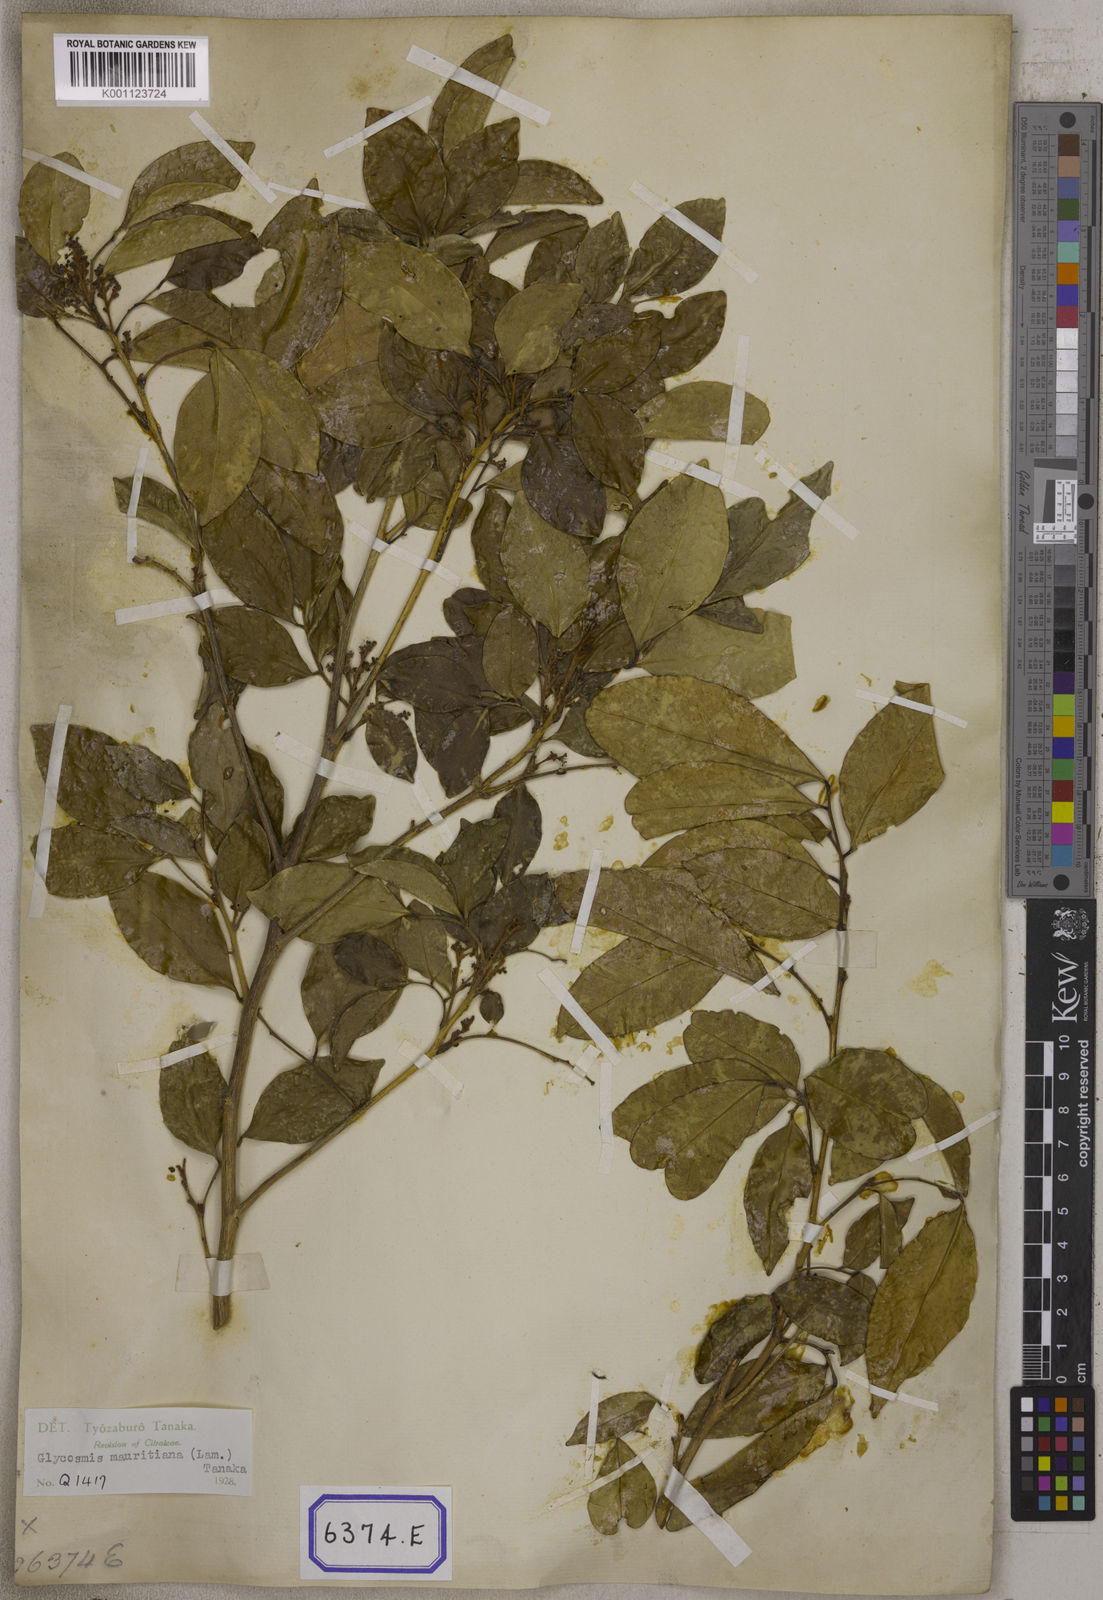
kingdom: Plantae
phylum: Tracheophyta
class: Magnoliopsida
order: Sapindales
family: Rutaceae
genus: Glycosmis
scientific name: Glycosmis pentaphylla
